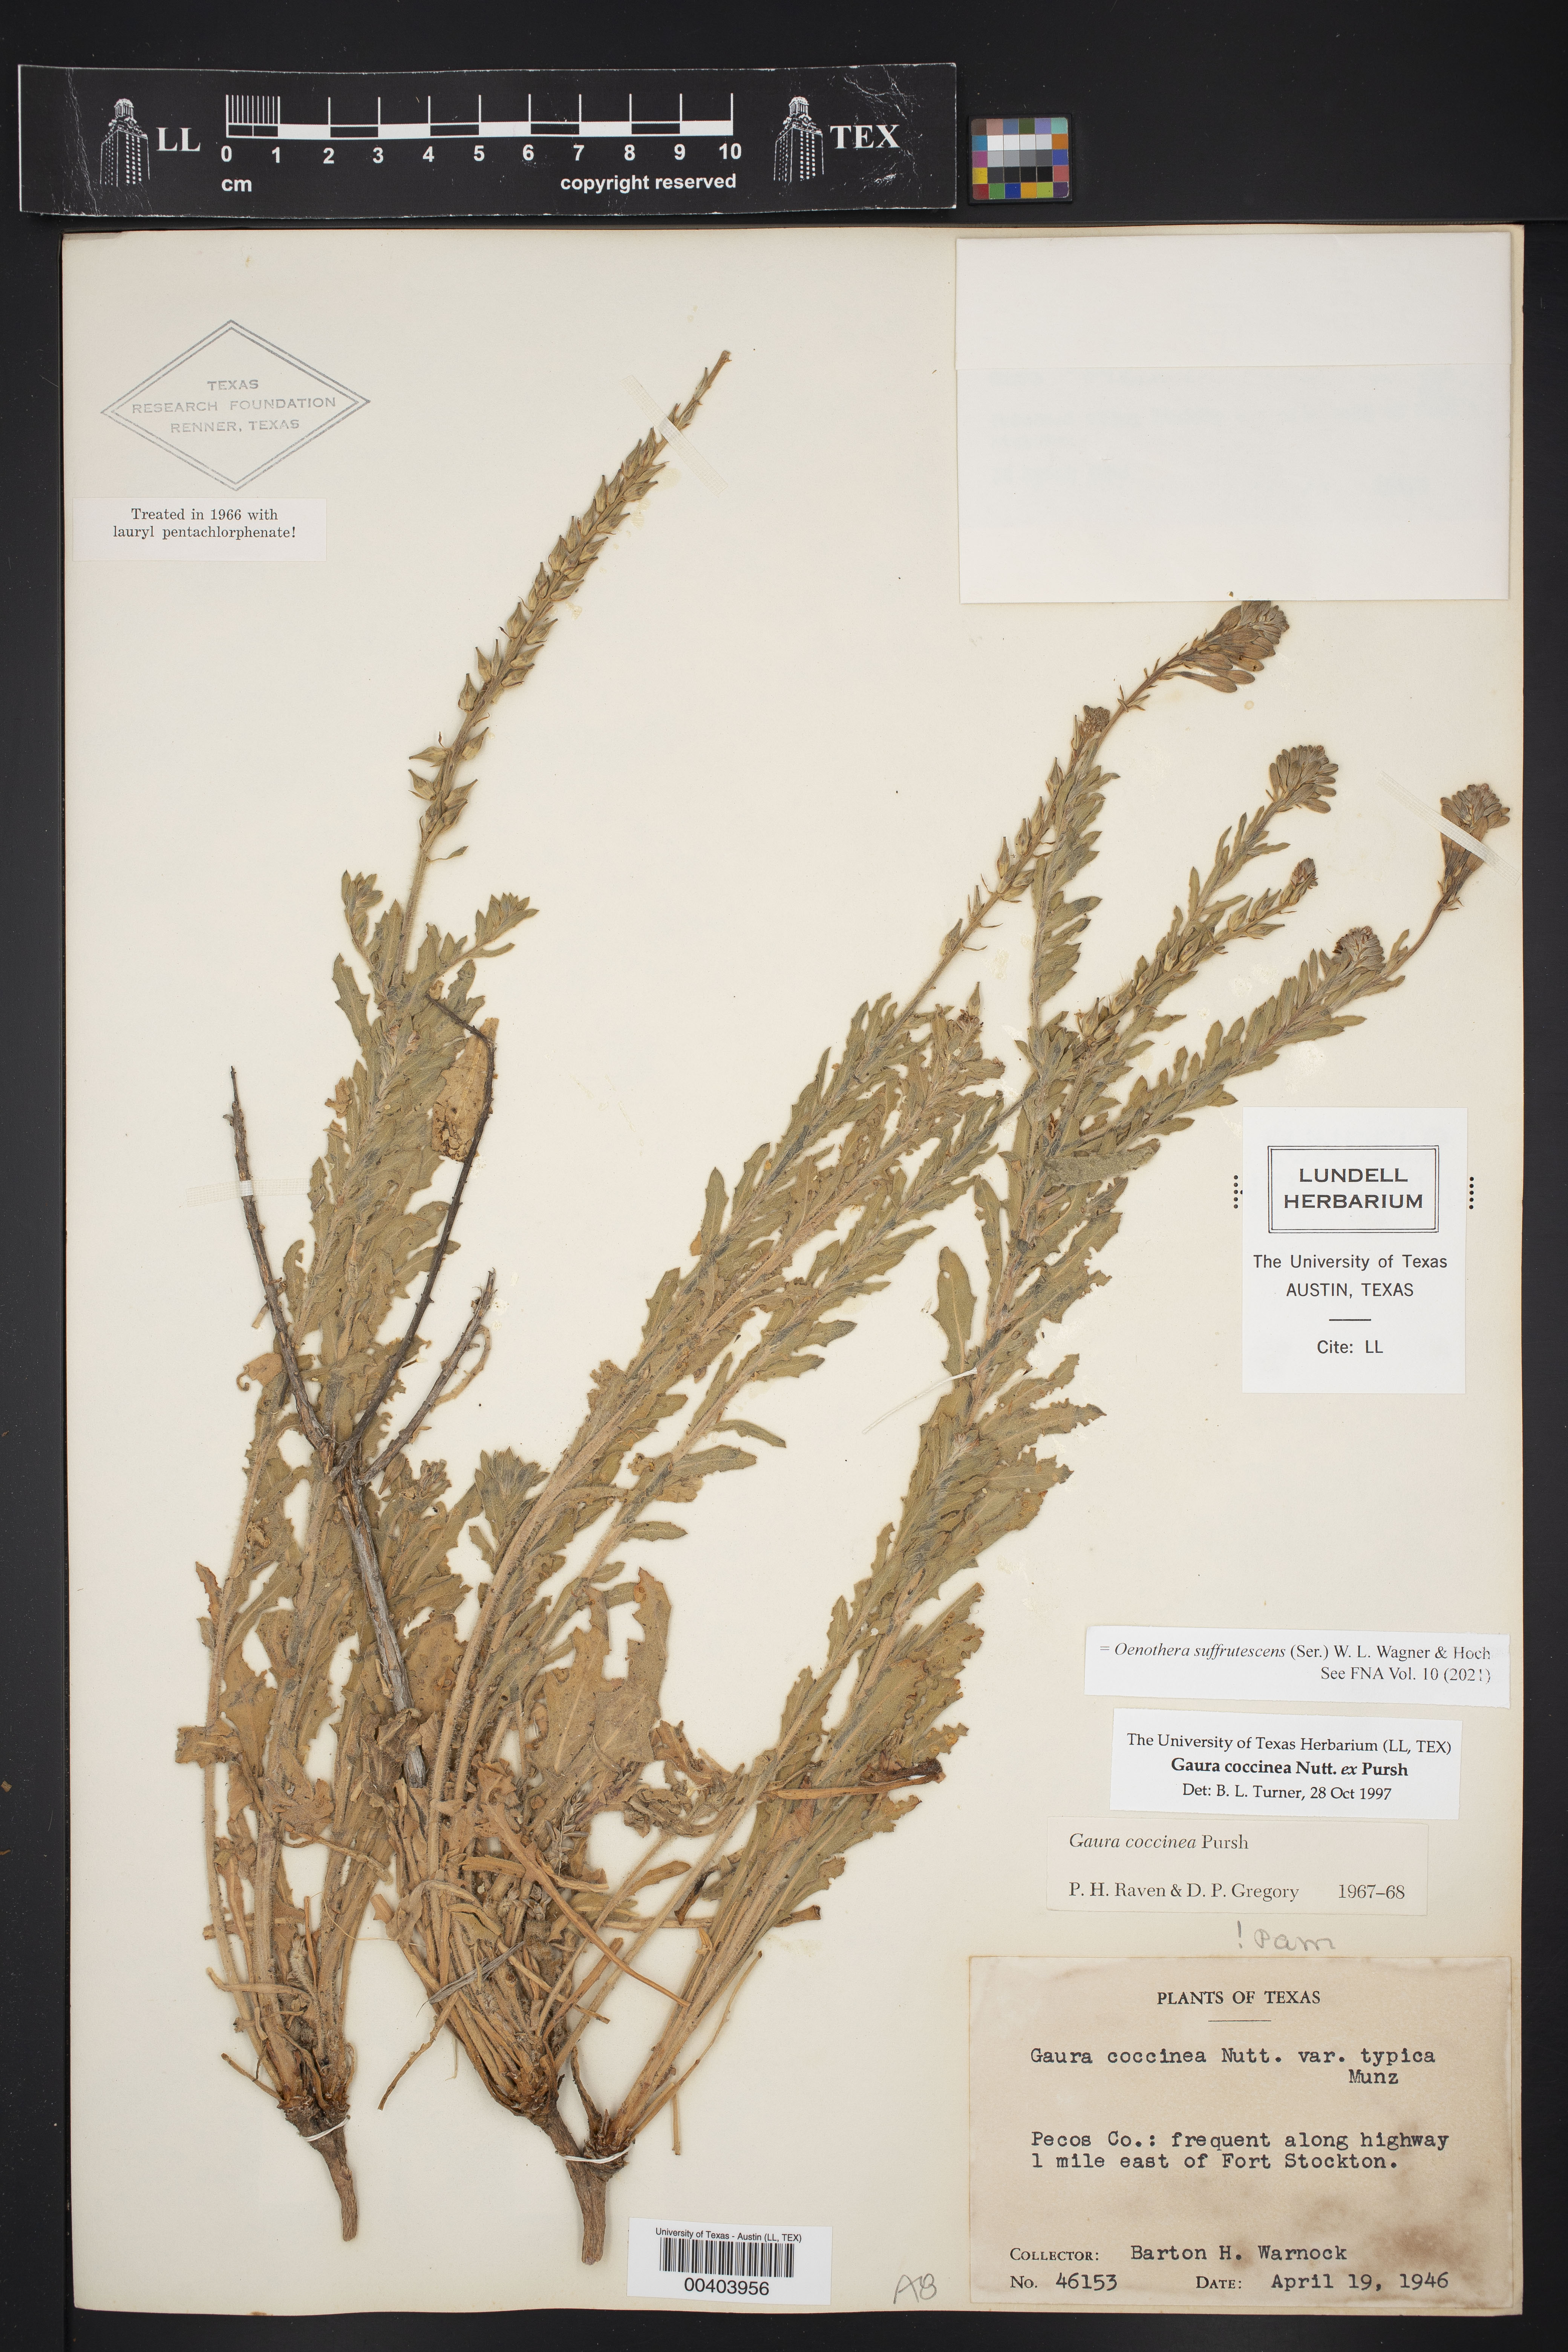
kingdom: Plantae
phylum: Tracheophyta
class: Magnoliopsida
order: Myrtales
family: Onagraceae
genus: Oenothera
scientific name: Oenothera suffrutescens
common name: Scarlet beeblossom
